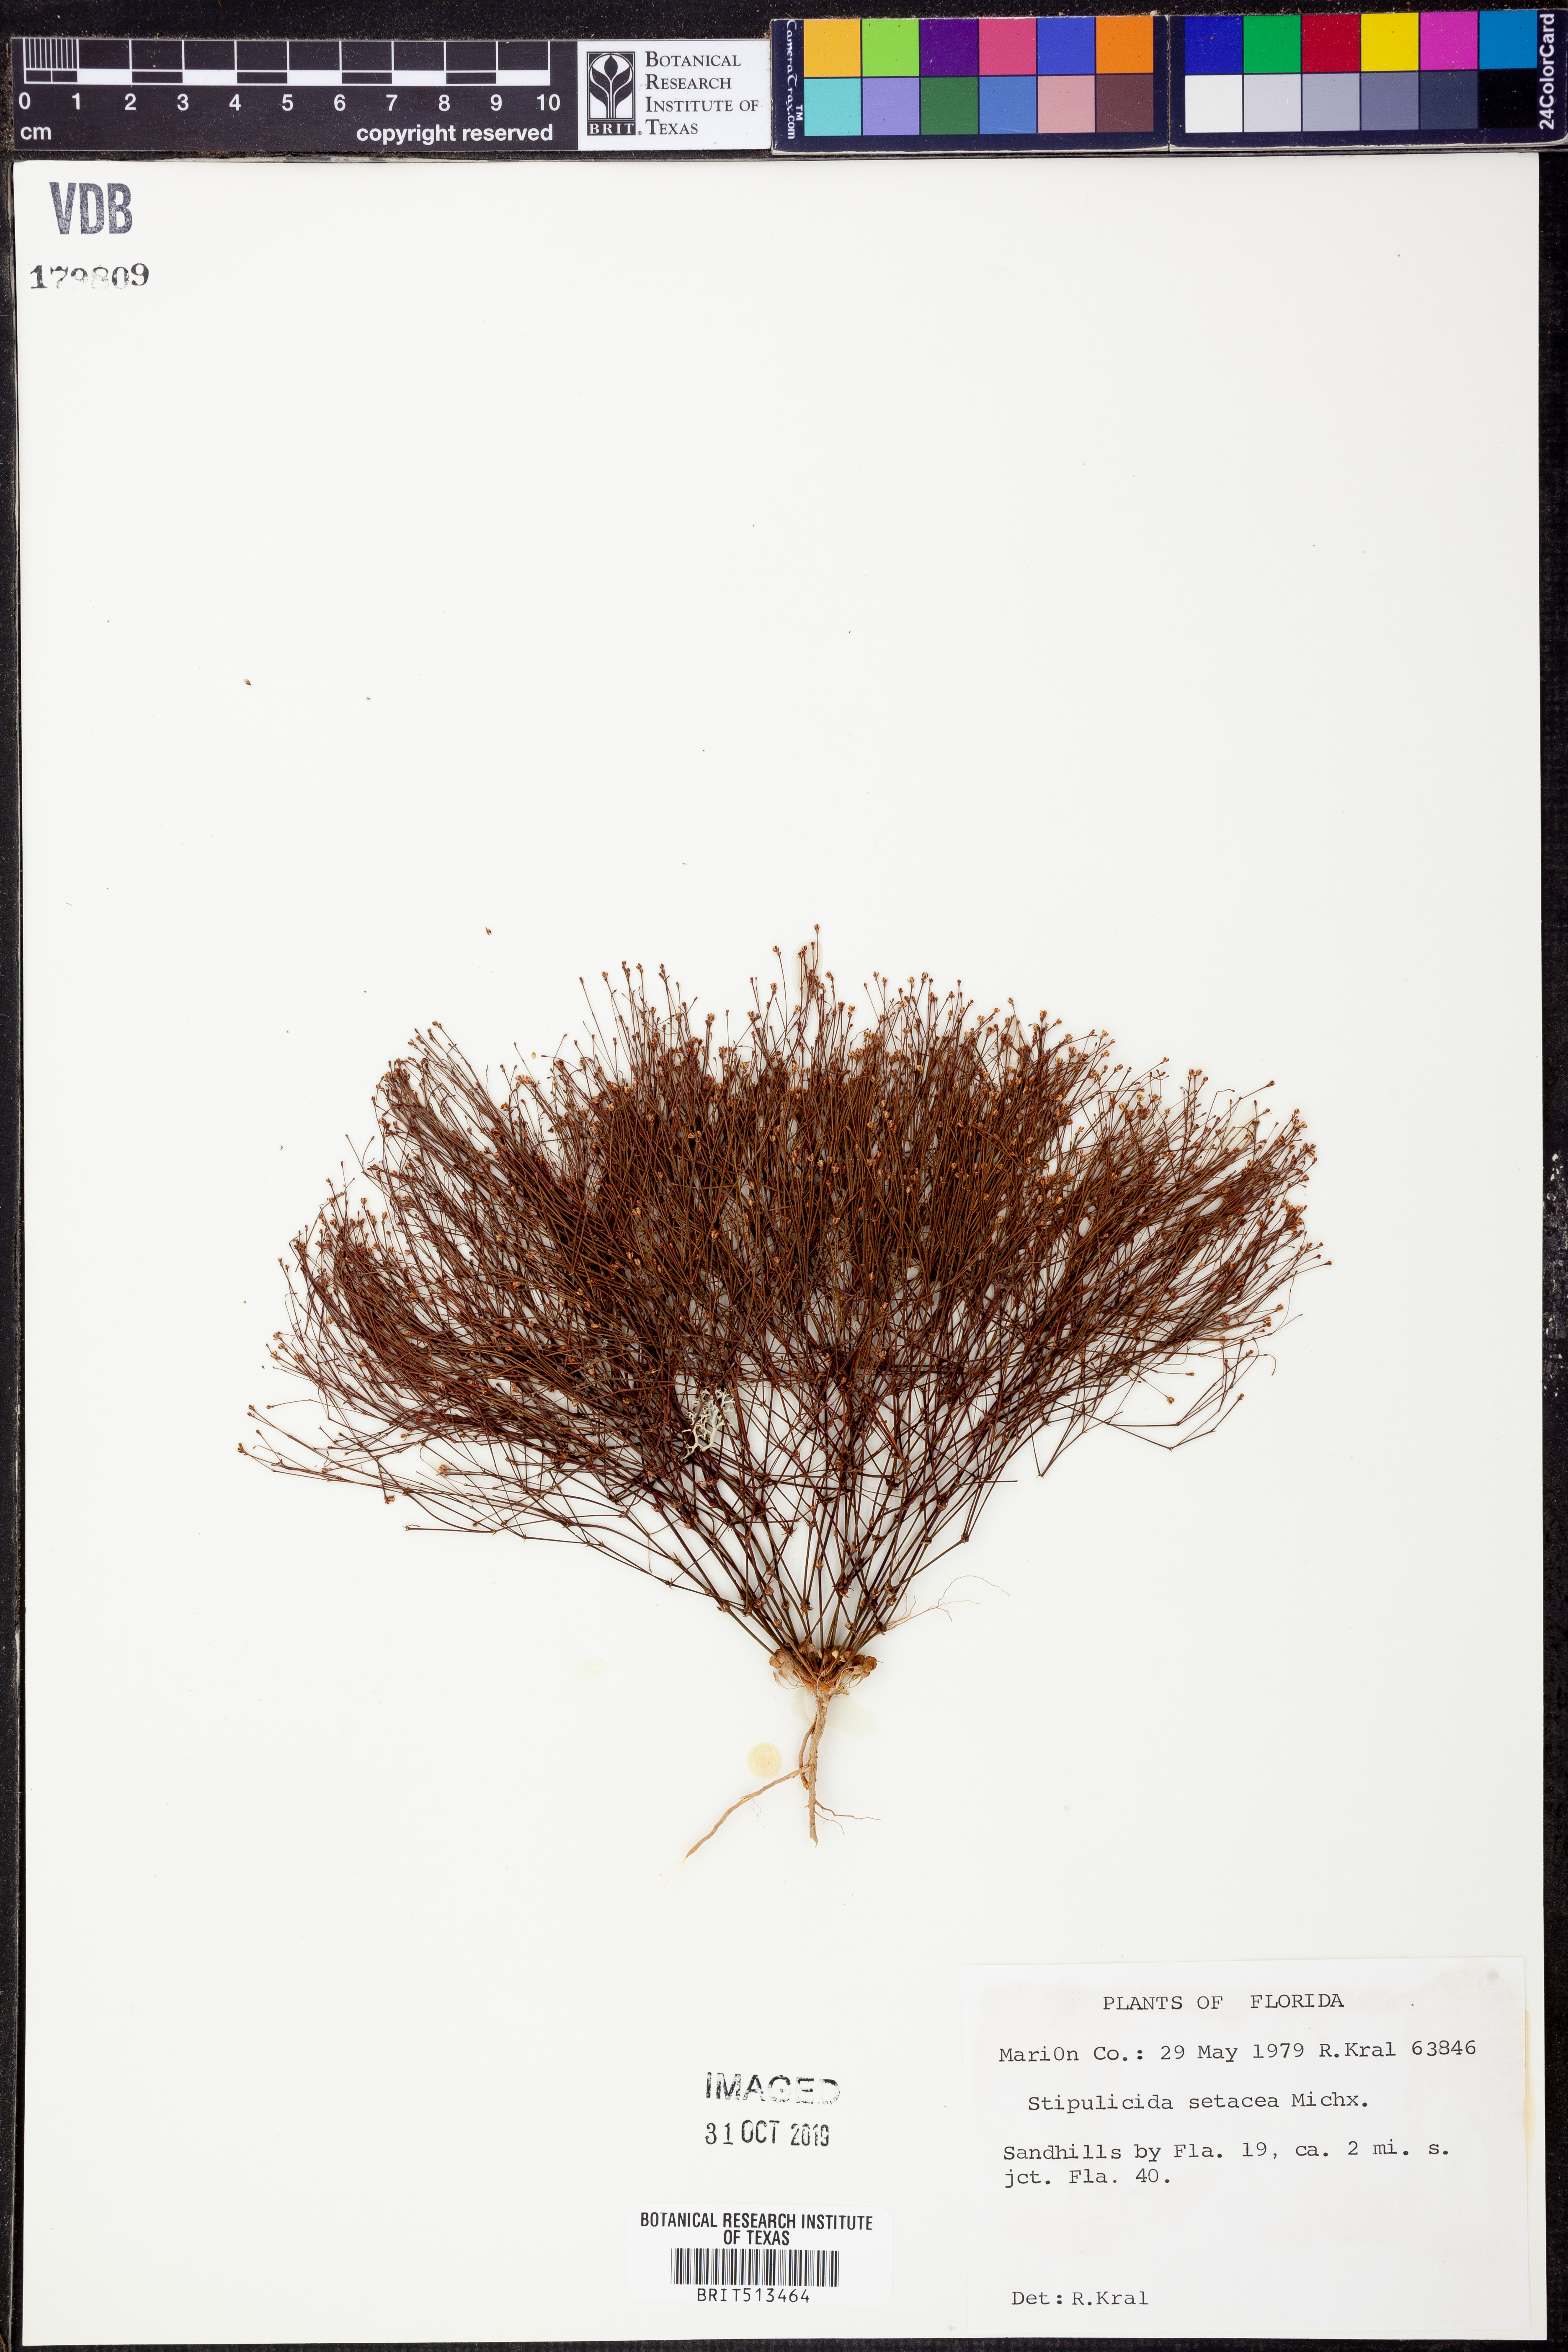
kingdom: Plantae
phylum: Tracheophyta
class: Magnoliopsida
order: Caryophyllales
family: Caryophyllaceae
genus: Stipulicida
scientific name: Stipulicida setacea
